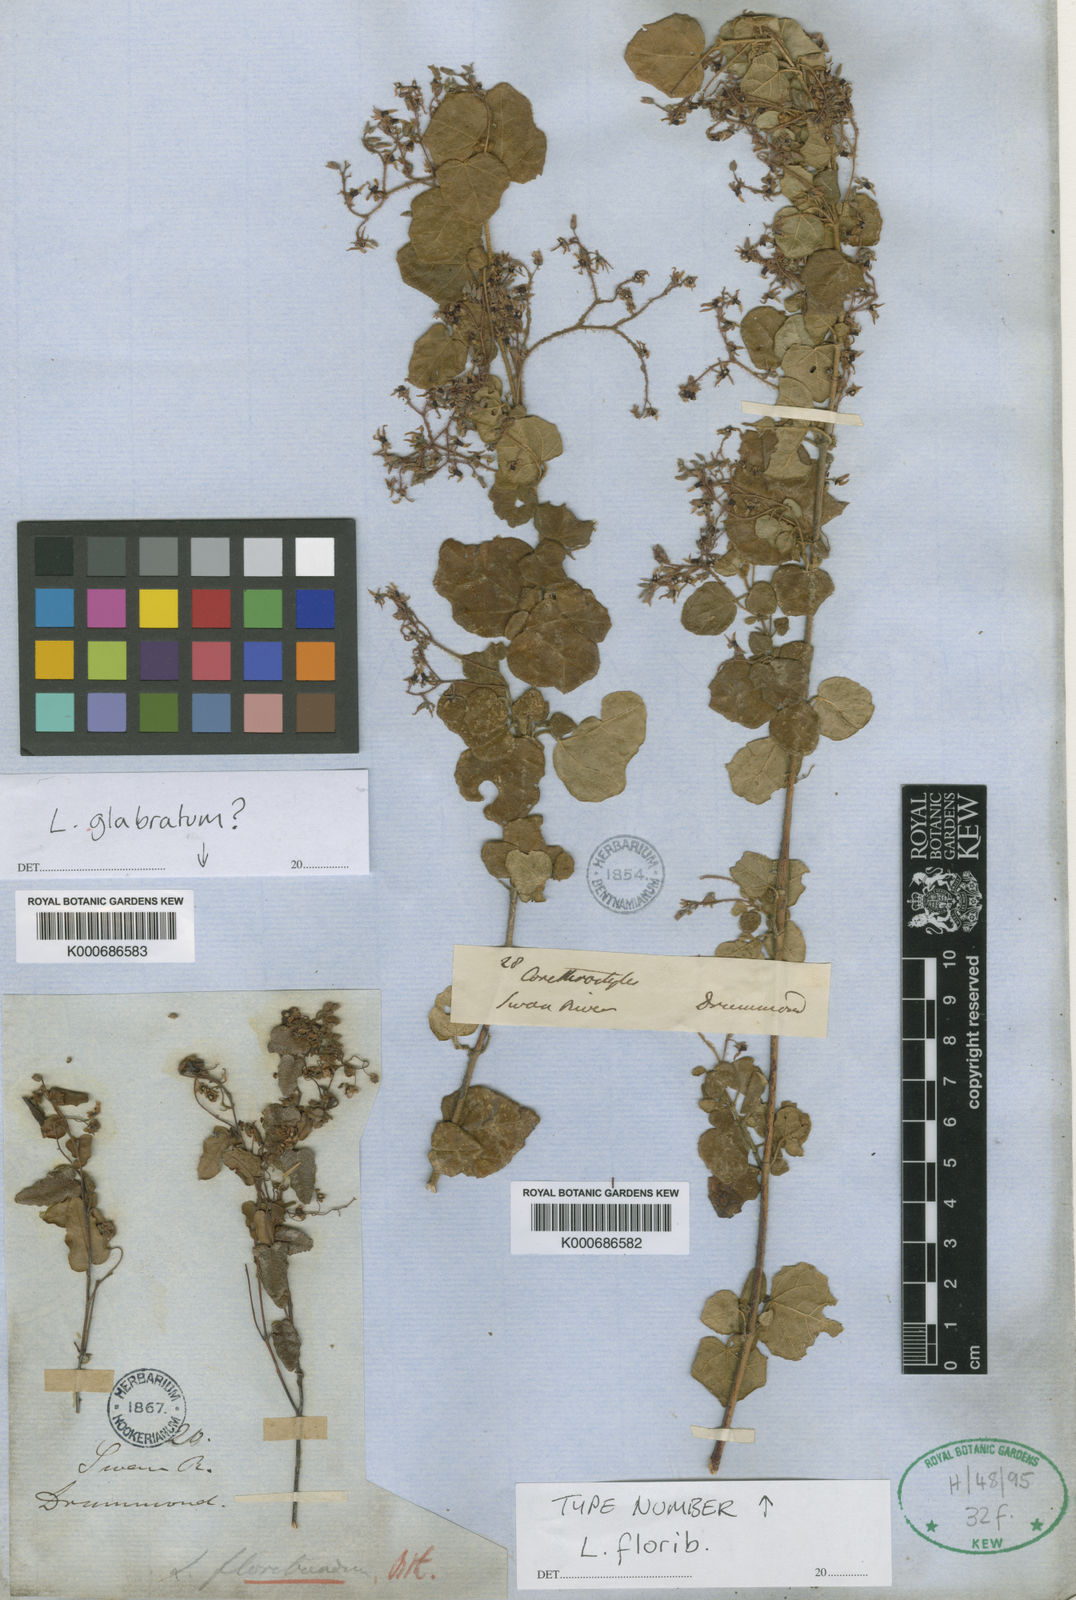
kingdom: Plantae
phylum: Tracheophyta
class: Magnoliopsida
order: Malvales
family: Malvaceae
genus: Lasiopetalum
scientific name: Lasiopetalum floribundum
